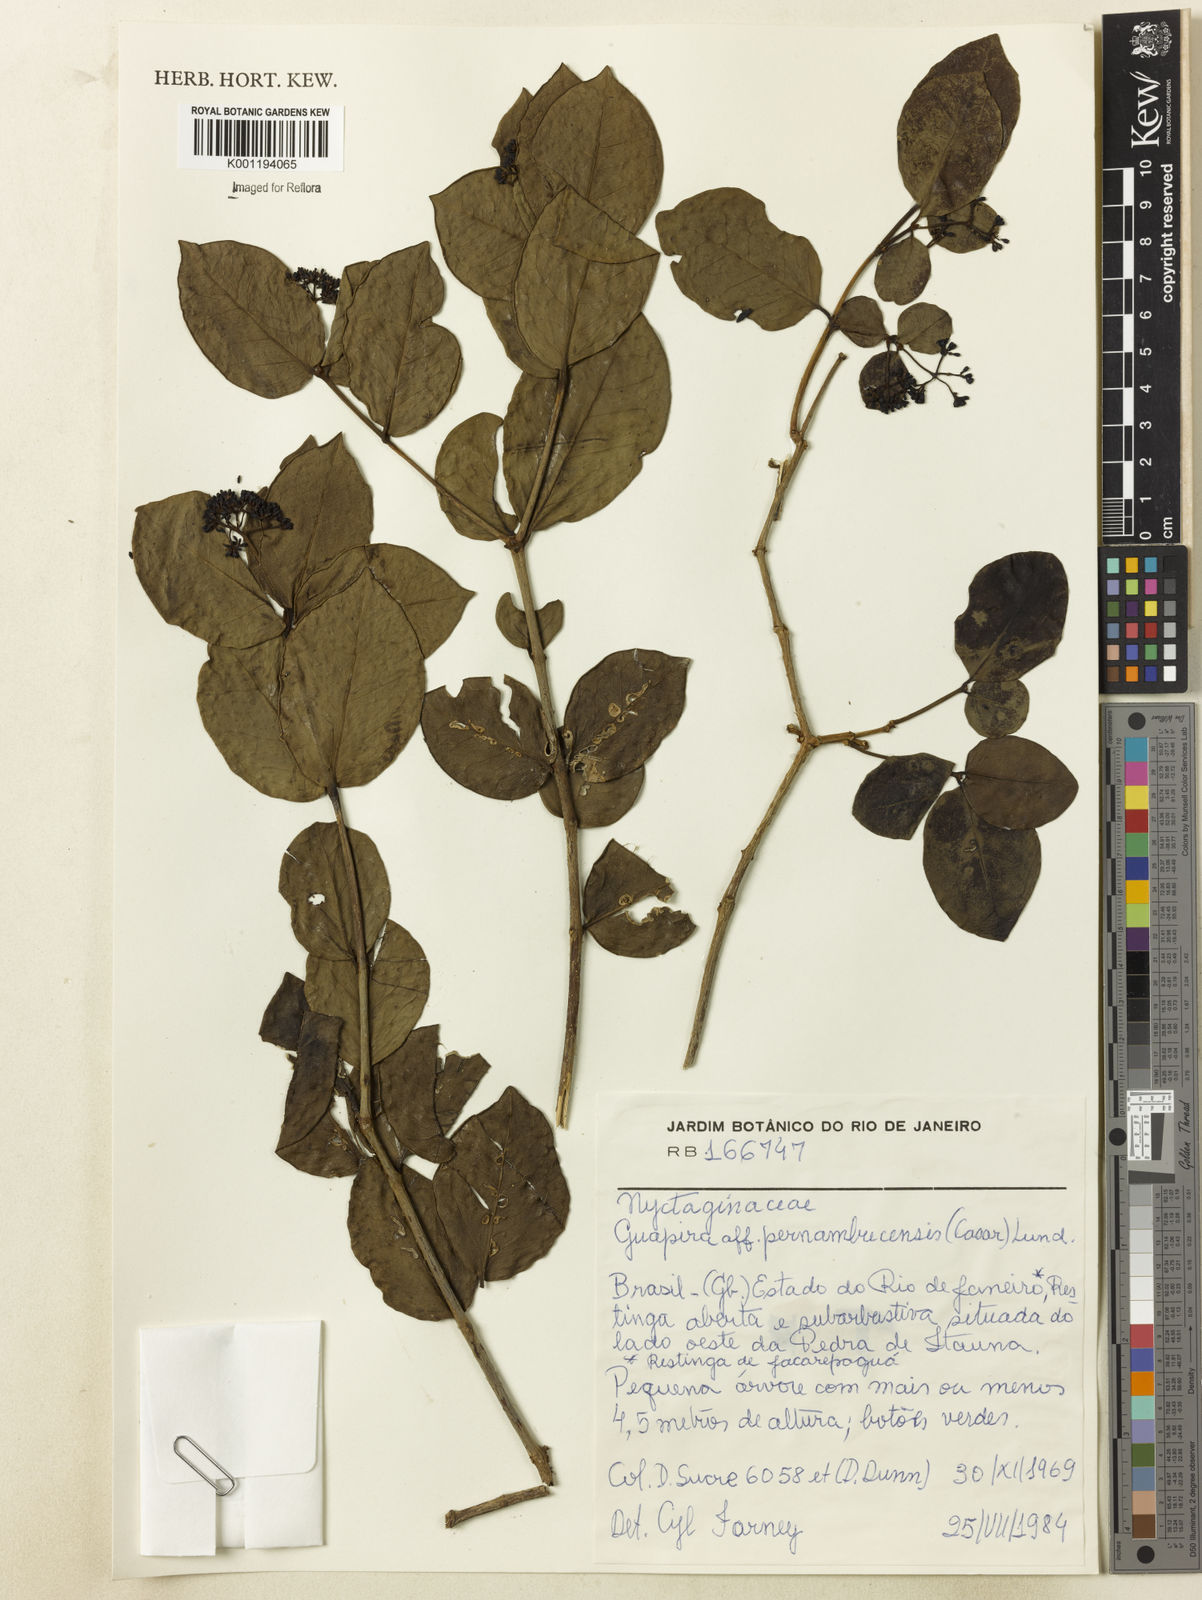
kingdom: Plantae
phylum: Tracheophyta
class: Magnoliopsida
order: Caryophyllales
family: Nyctaginaceae
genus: Guapira
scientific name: Guapira pernambucensis
